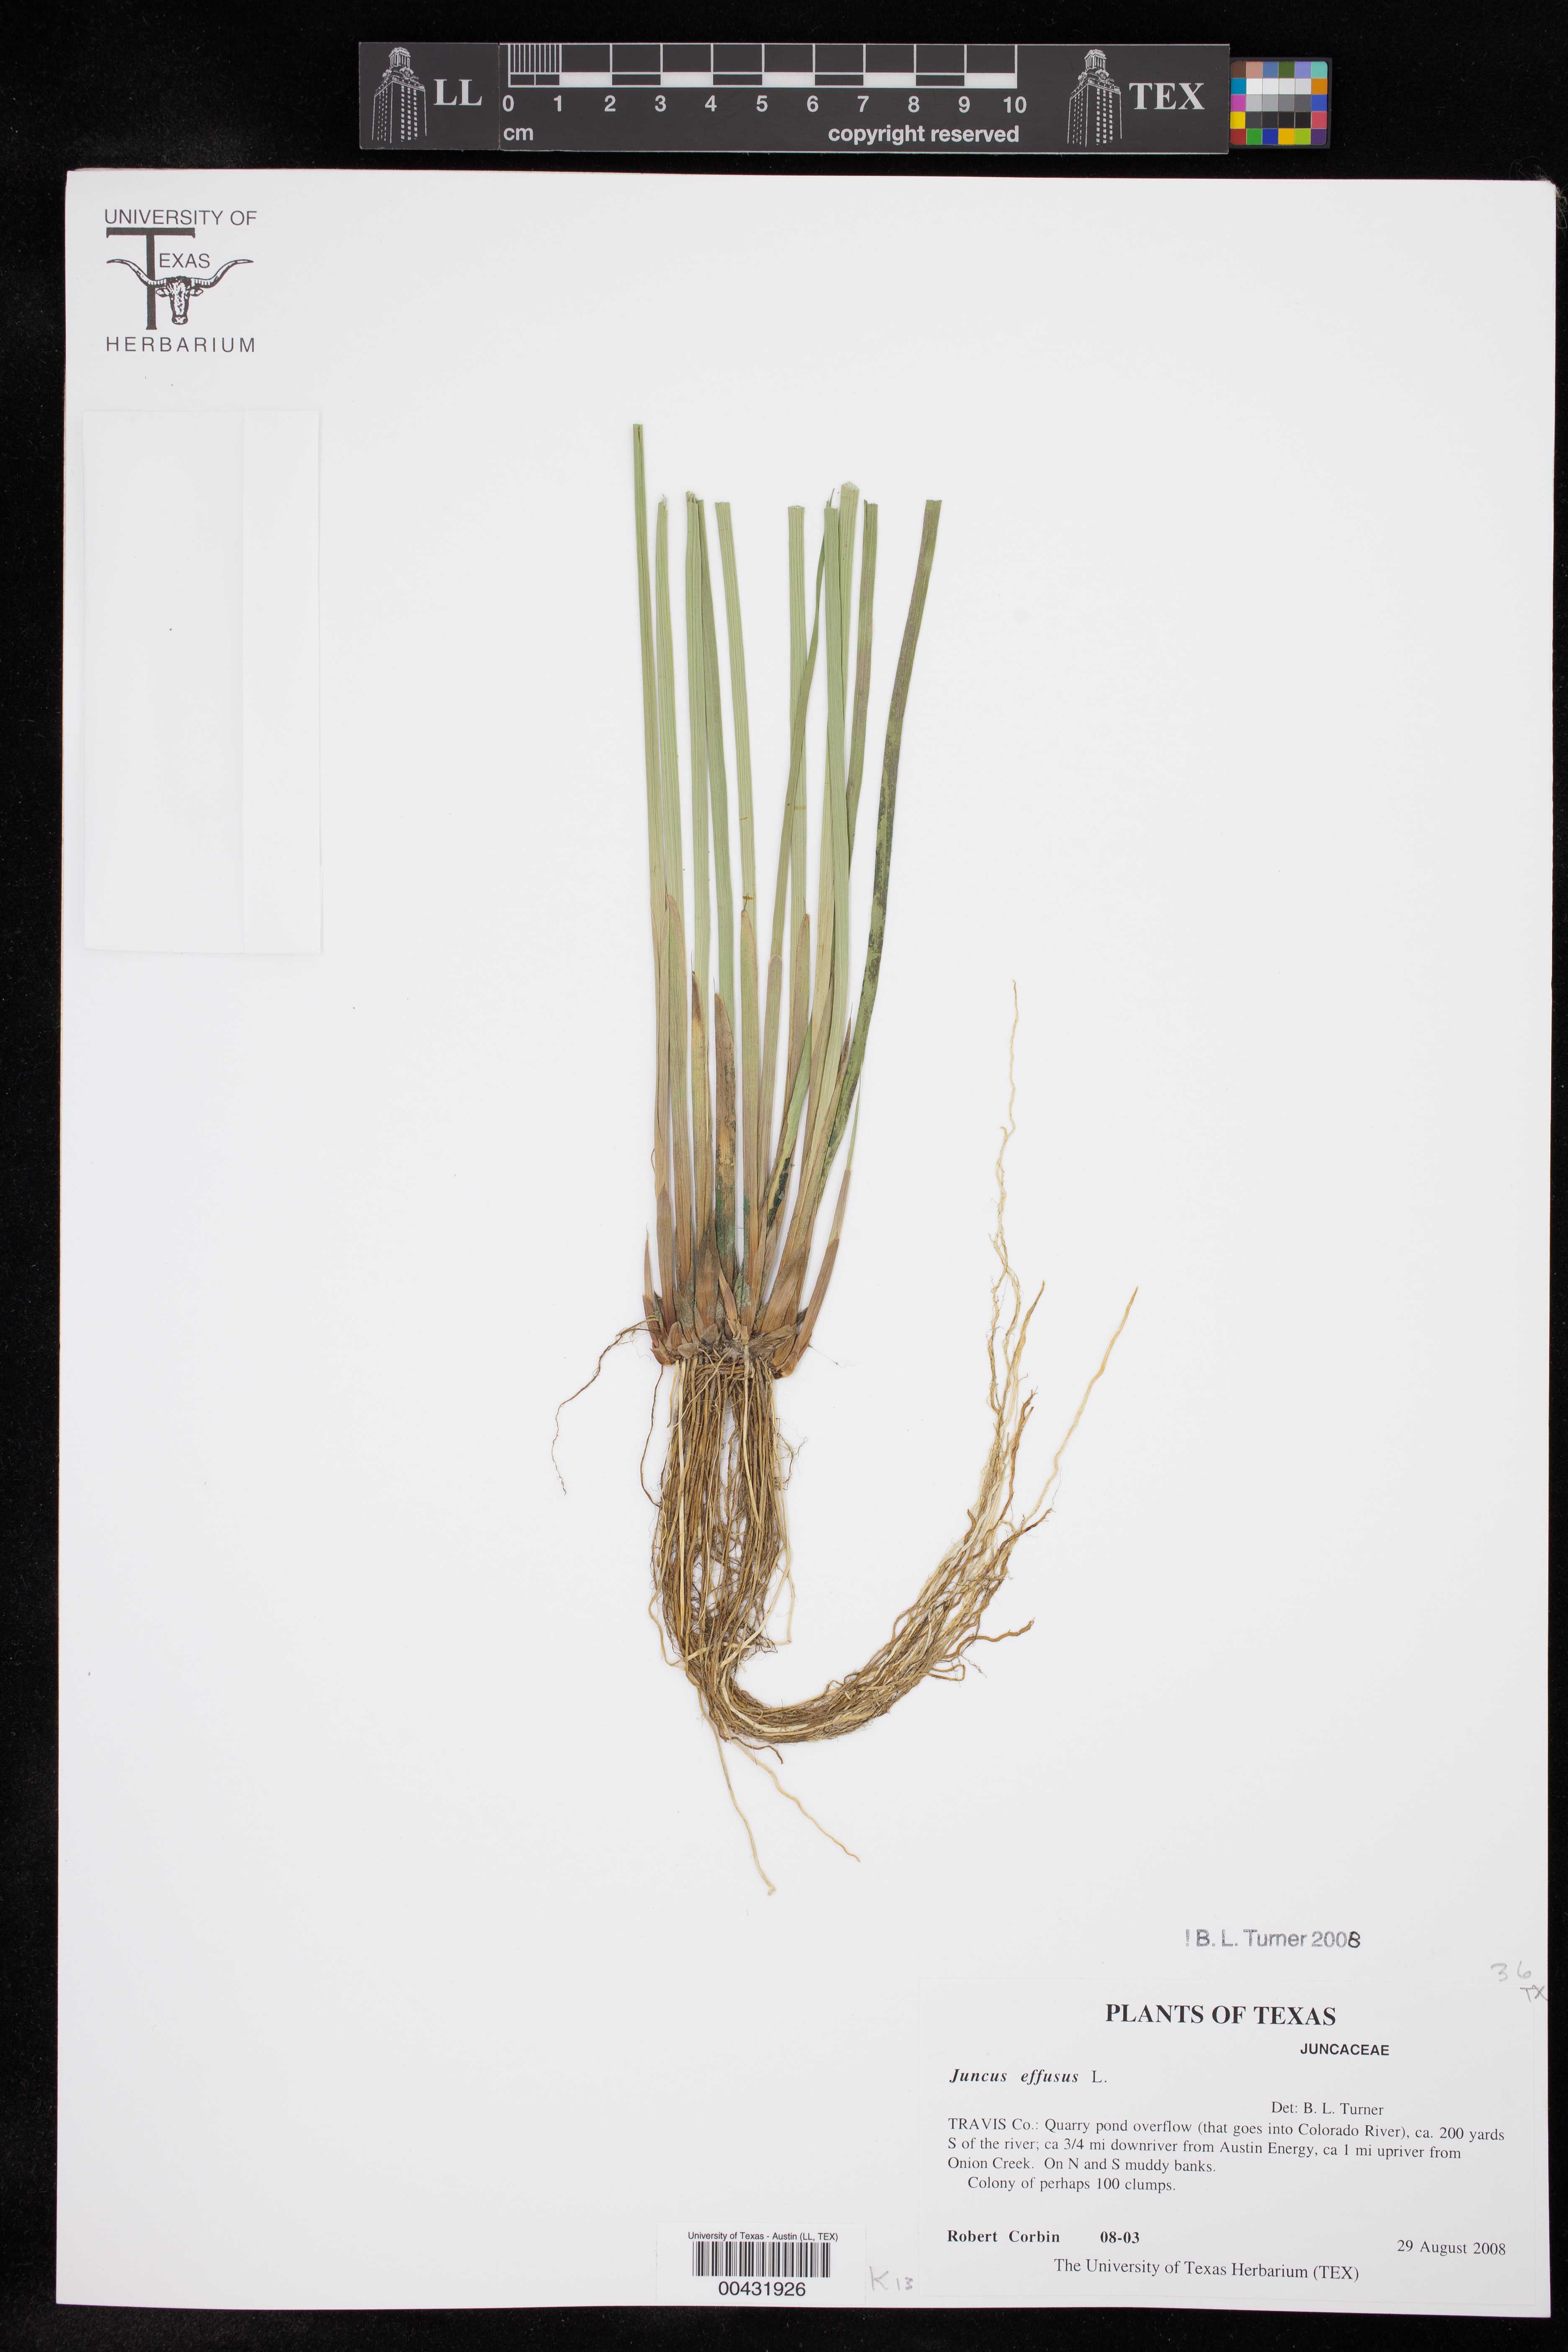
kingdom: Plantae
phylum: Tracheophyta
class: Liliopsida
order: Poales
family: Juncaceae
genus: Juncus
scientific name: Juncus effusus
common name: Soft rush
